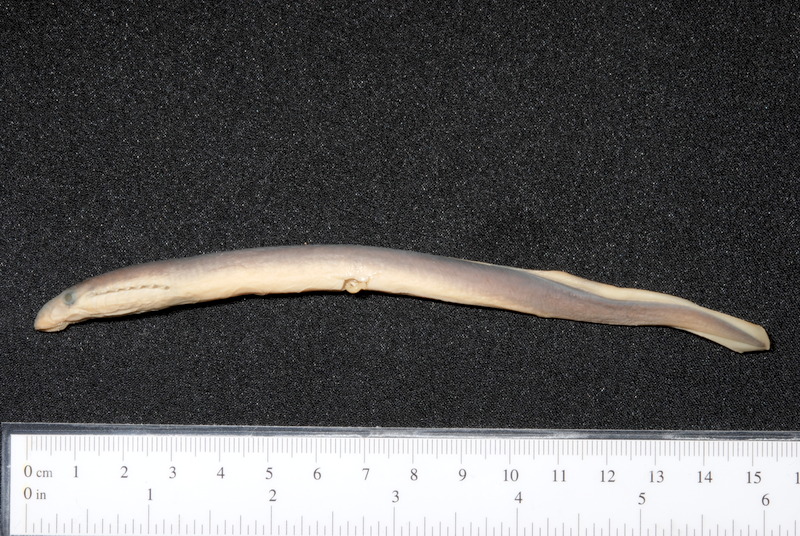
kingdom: Animalia
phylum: Chordata
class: Petromyzonti
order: Petromyzontiformes
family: Petromyzontidae
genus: Lampetra
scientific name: Lampetra planeri
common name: Brook lamprey
